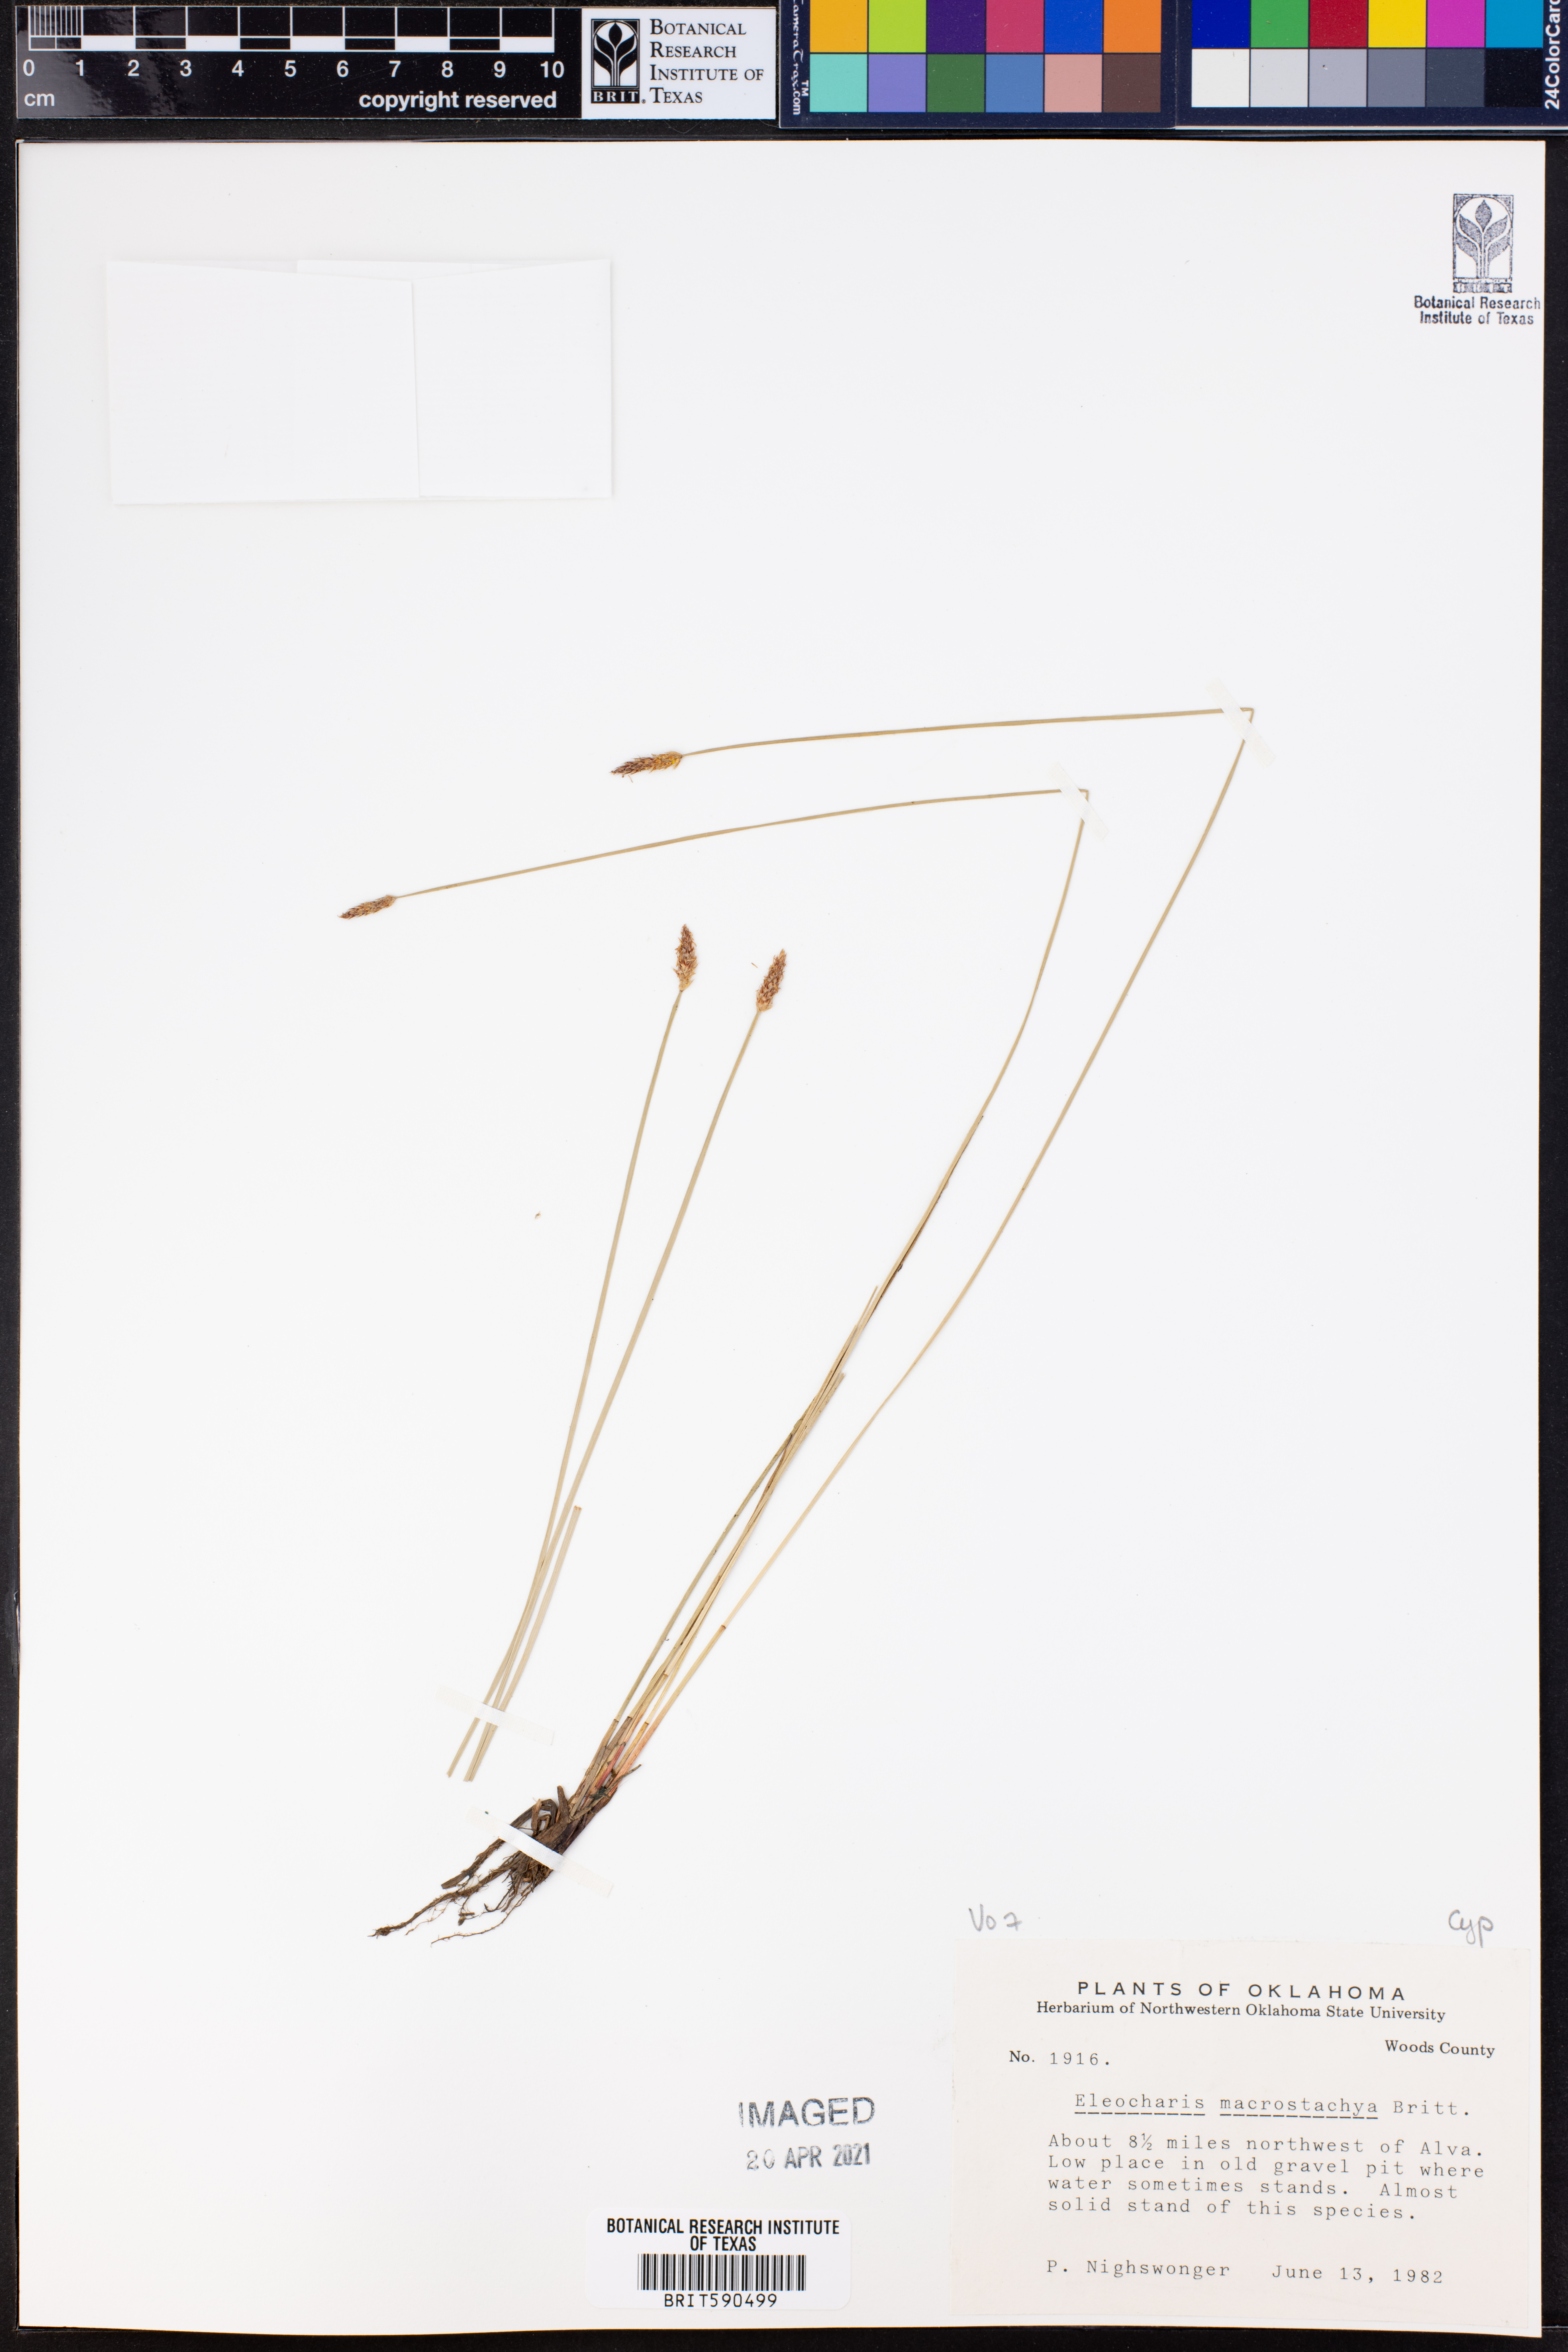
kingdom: Plantae
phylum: Tracheophyta
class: Liliopsida
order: Poales
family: Cyperaceae
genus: Eleocharis
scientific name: Eleocharis macrostachya
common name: Pale spikerush
